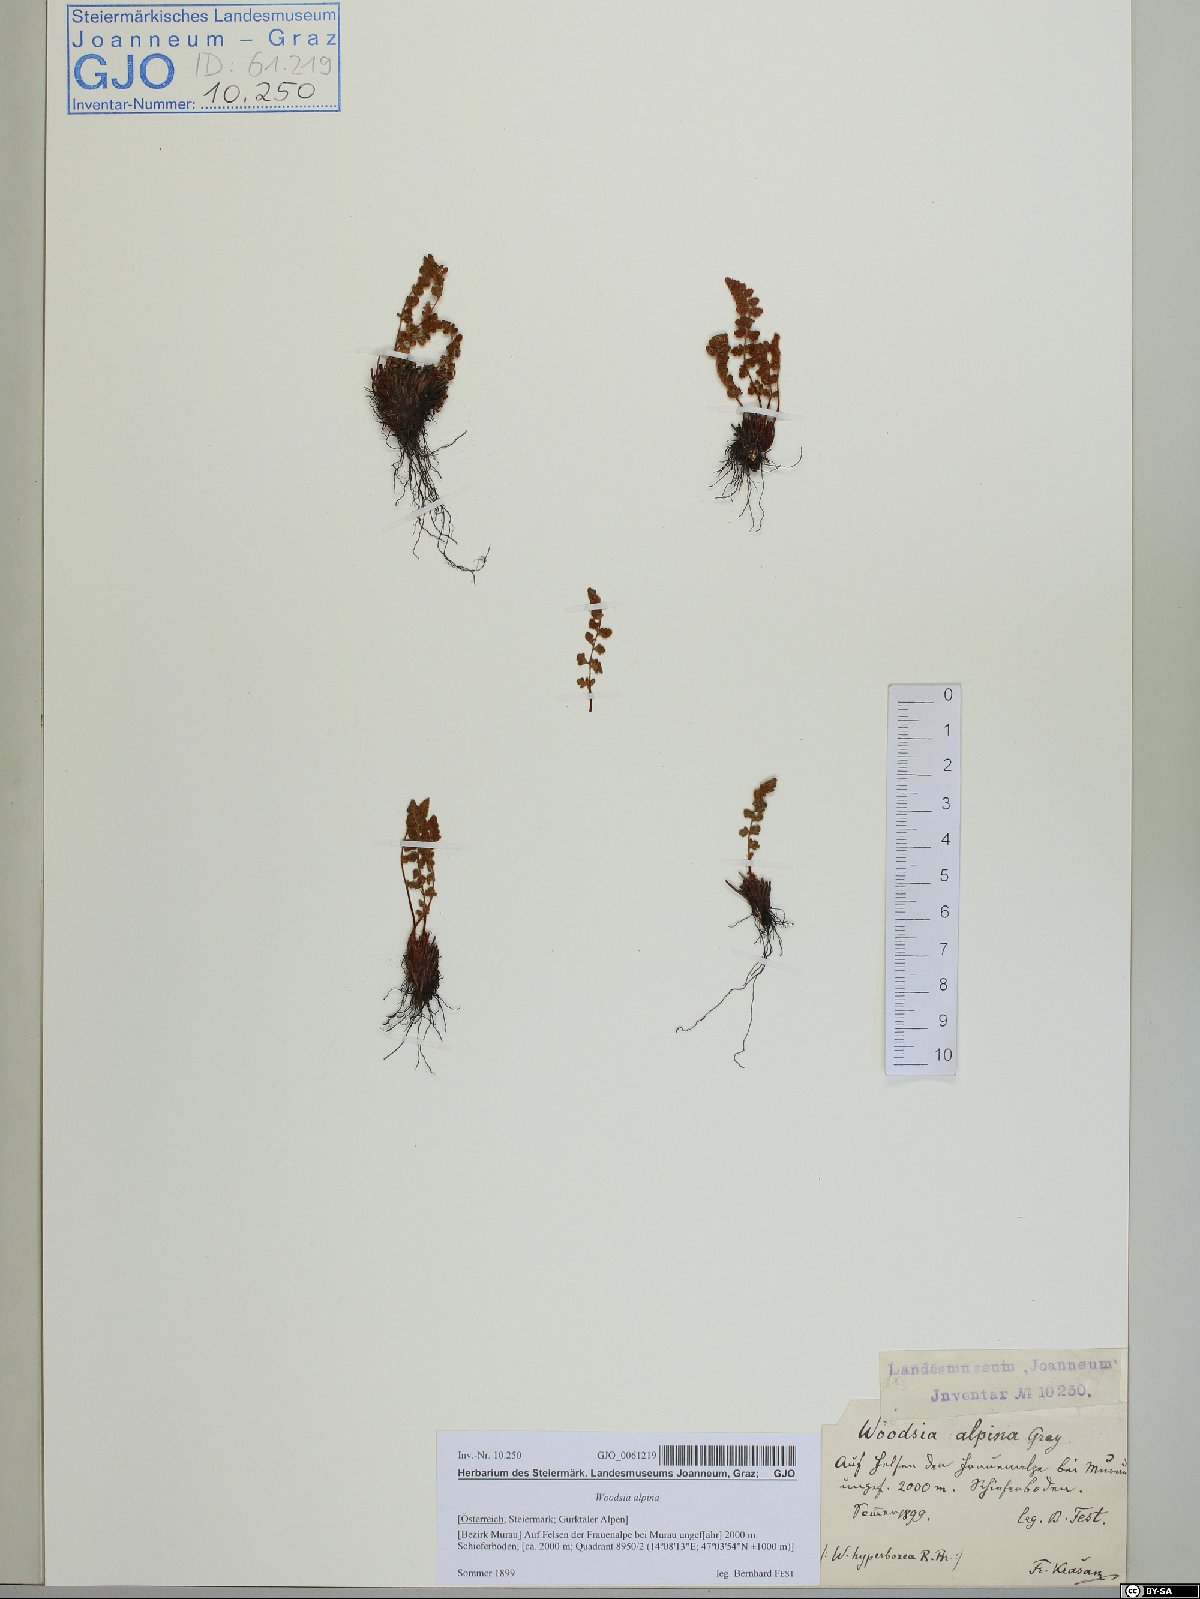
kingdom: Plantae
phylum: Tracheophyta
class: Polypodiopsida
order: Polypodiales
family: Woodsiaceae
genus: Woodsia
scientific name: Woodsia alpina
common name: Alpine woodsia
